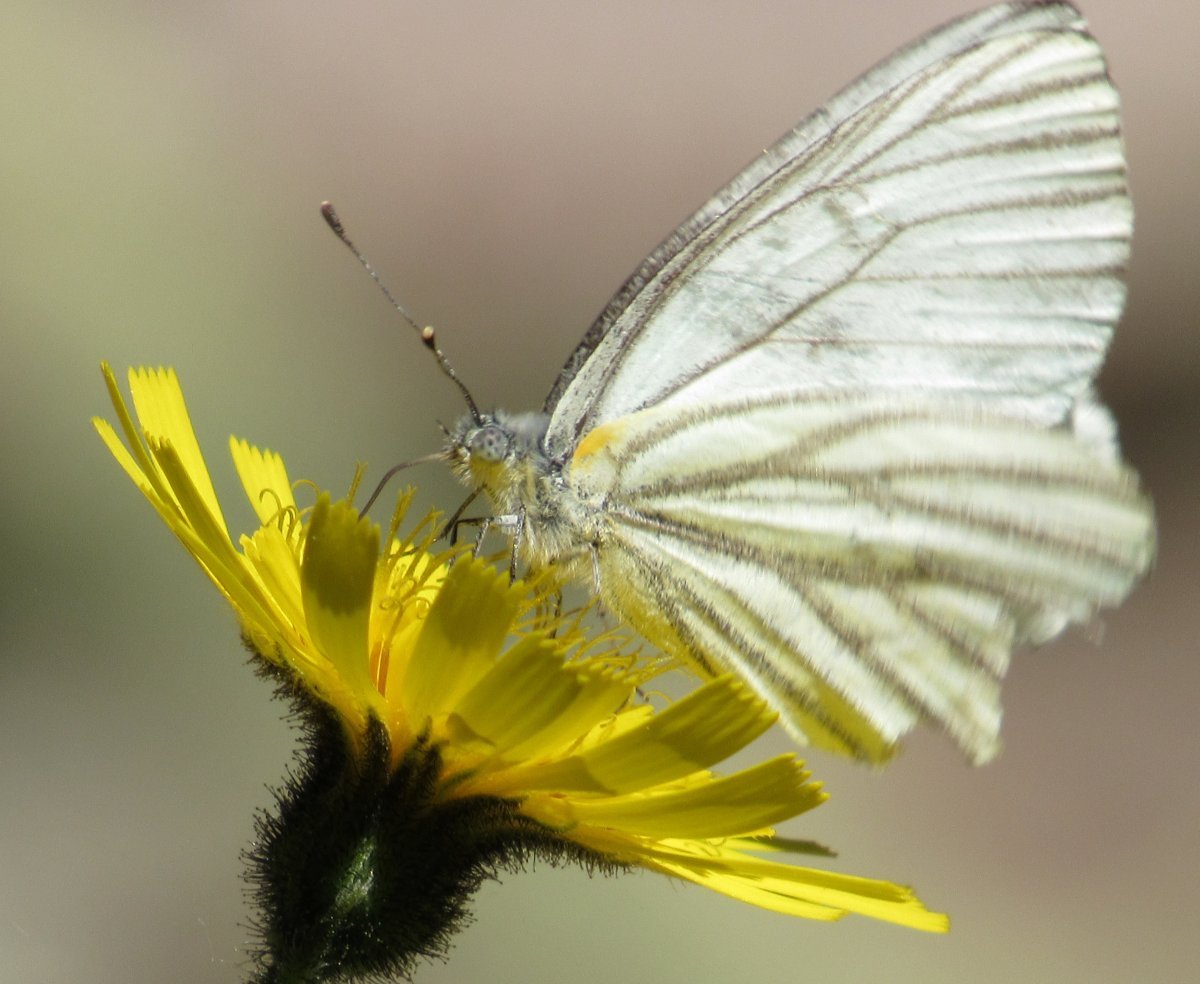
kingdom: Animalia
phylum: Arthropoda
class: Insecta
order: Lepidoptera
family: Pieridae
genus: Pieris
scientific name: Pieris oleracea
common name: Mustard White
